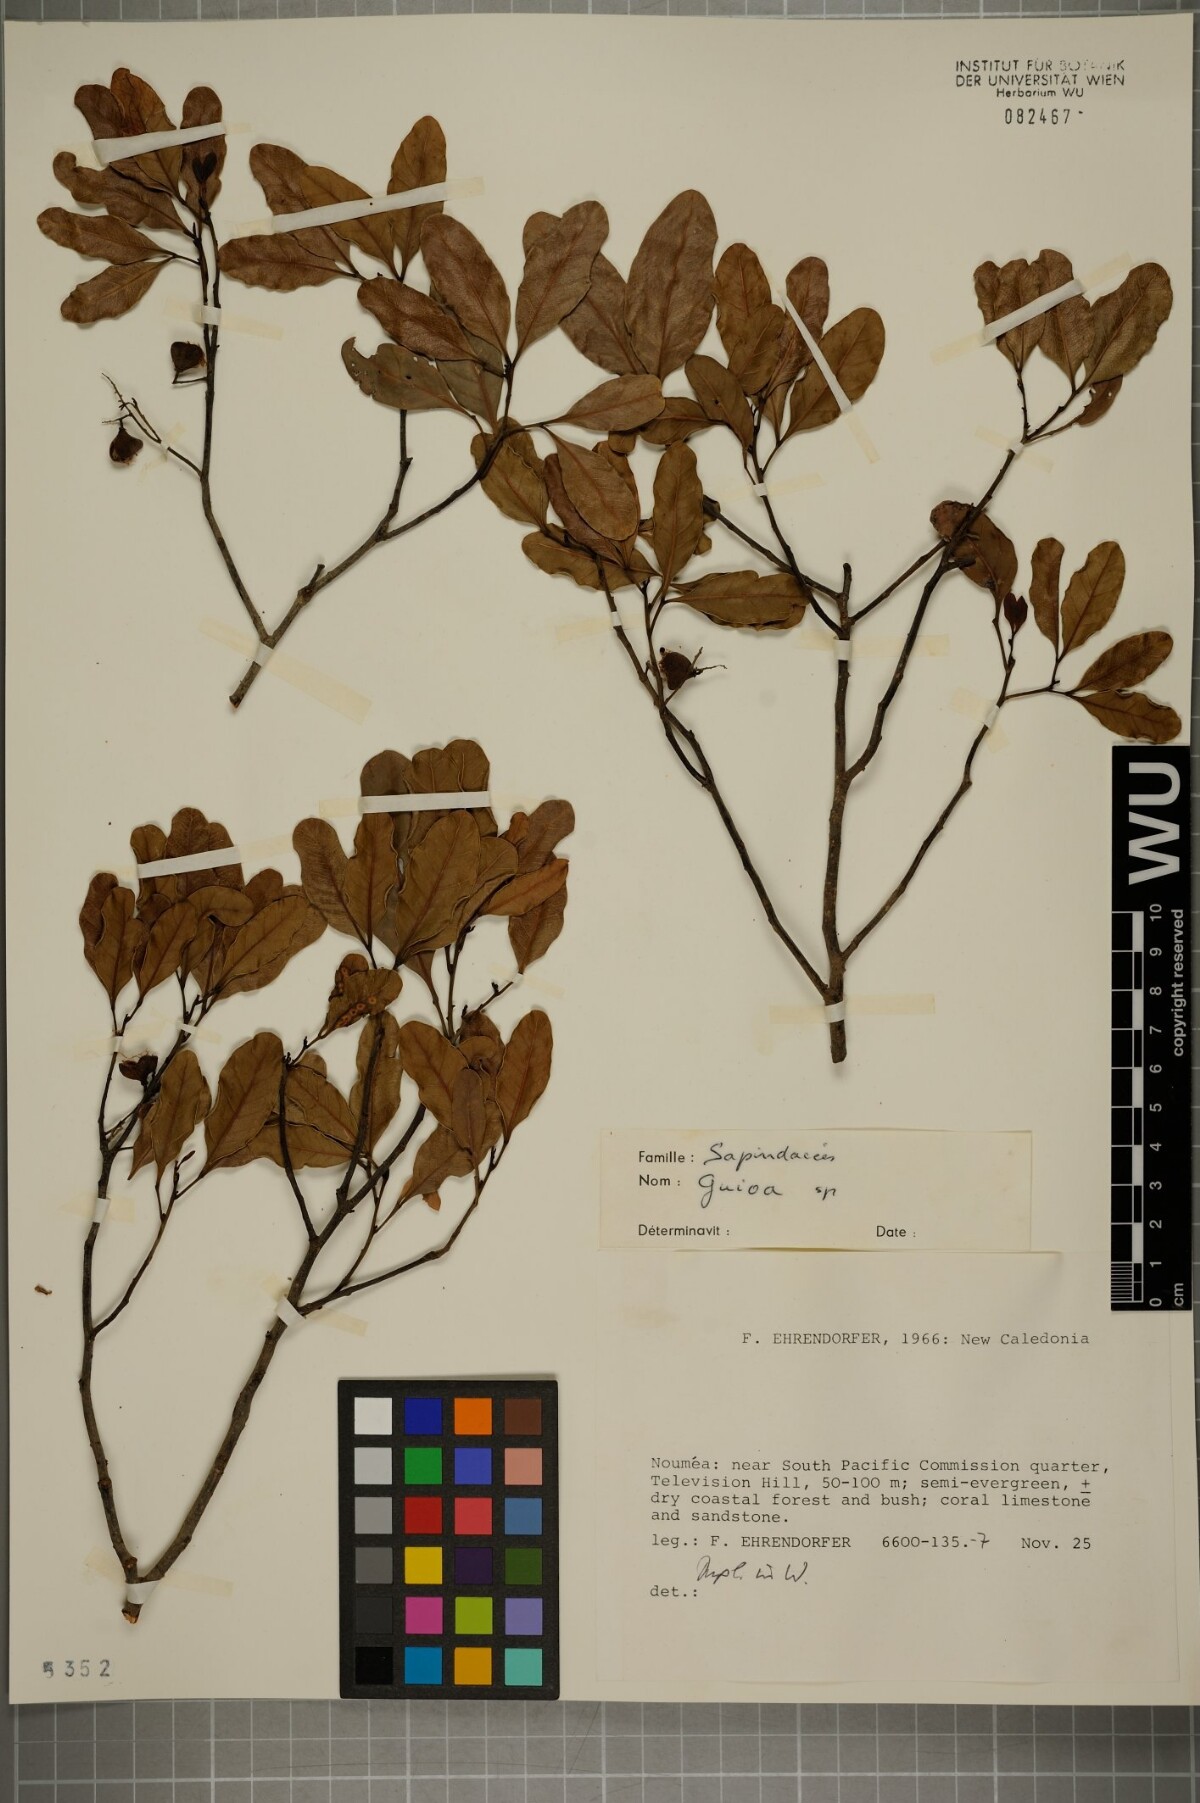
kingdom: Plantae
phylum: Tracheophyta
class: Magnoliopsida
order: Sapindales
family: Sapindaceae
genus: Guioa
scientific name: Guioa
